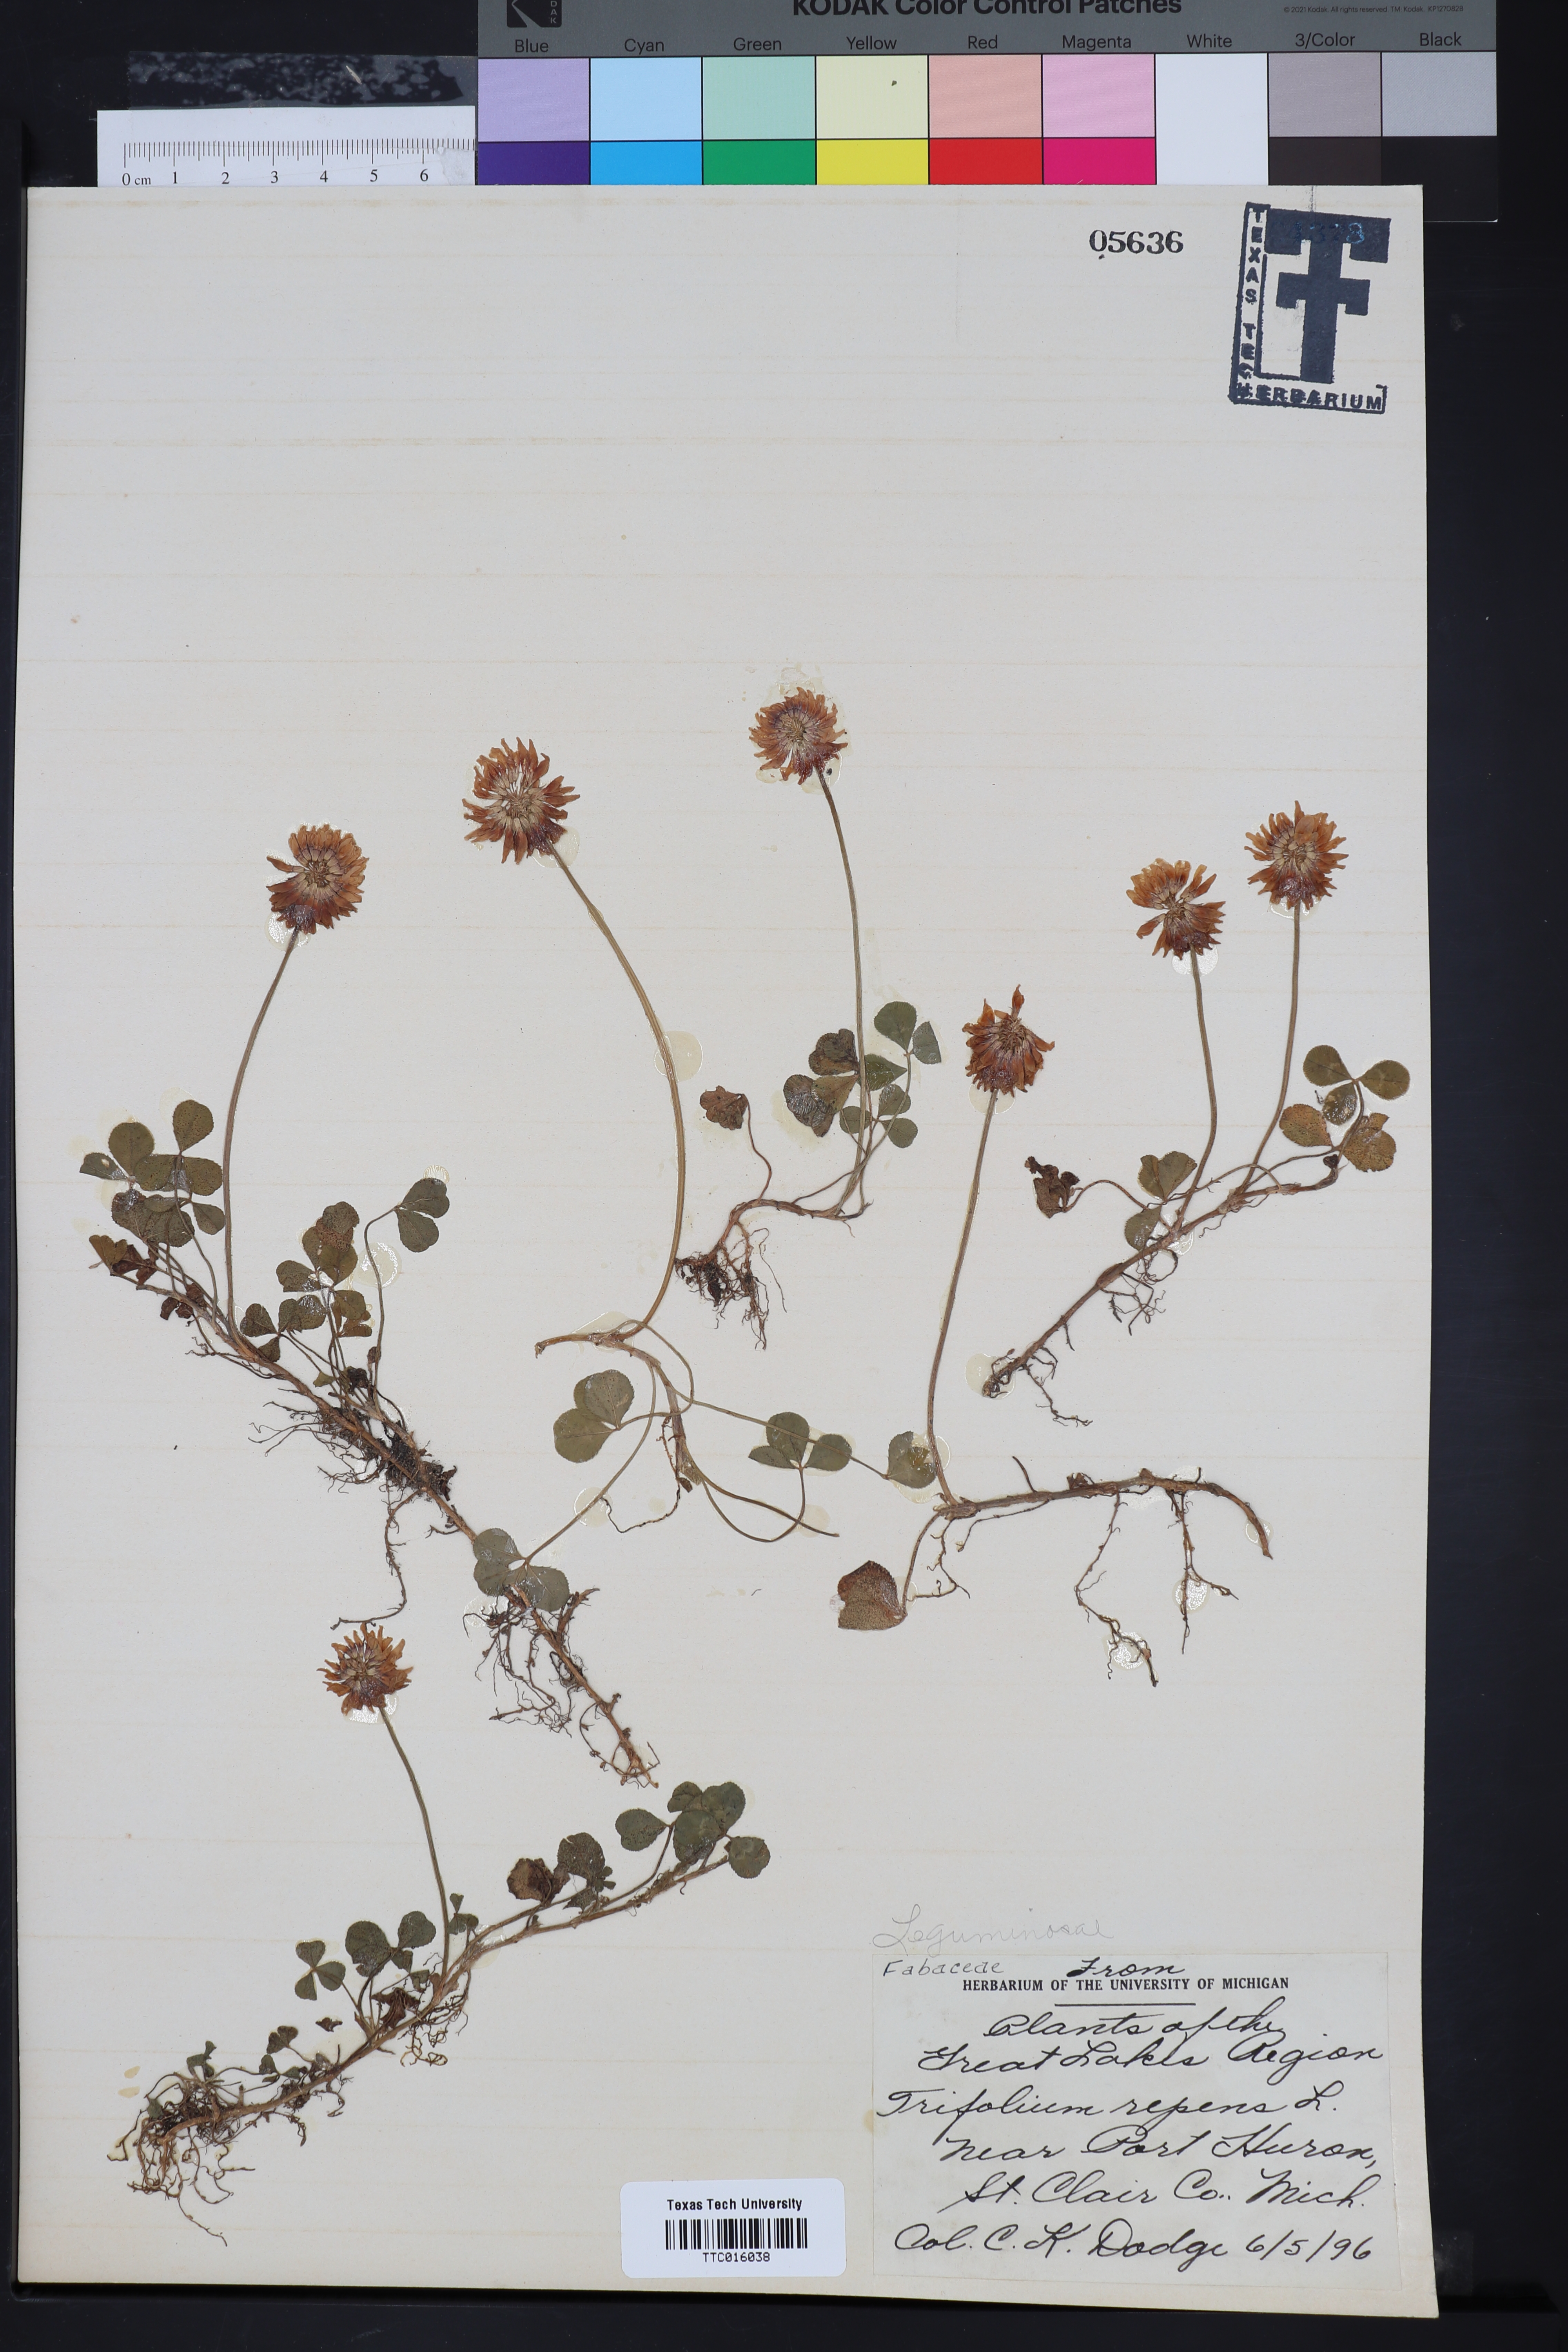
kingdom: Plantae
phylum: Tracheophyta
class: Magnoliopsida
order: Fabales
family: Fabaceae
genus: Trifolium
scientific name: Trifolium campestre
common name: Field clover
